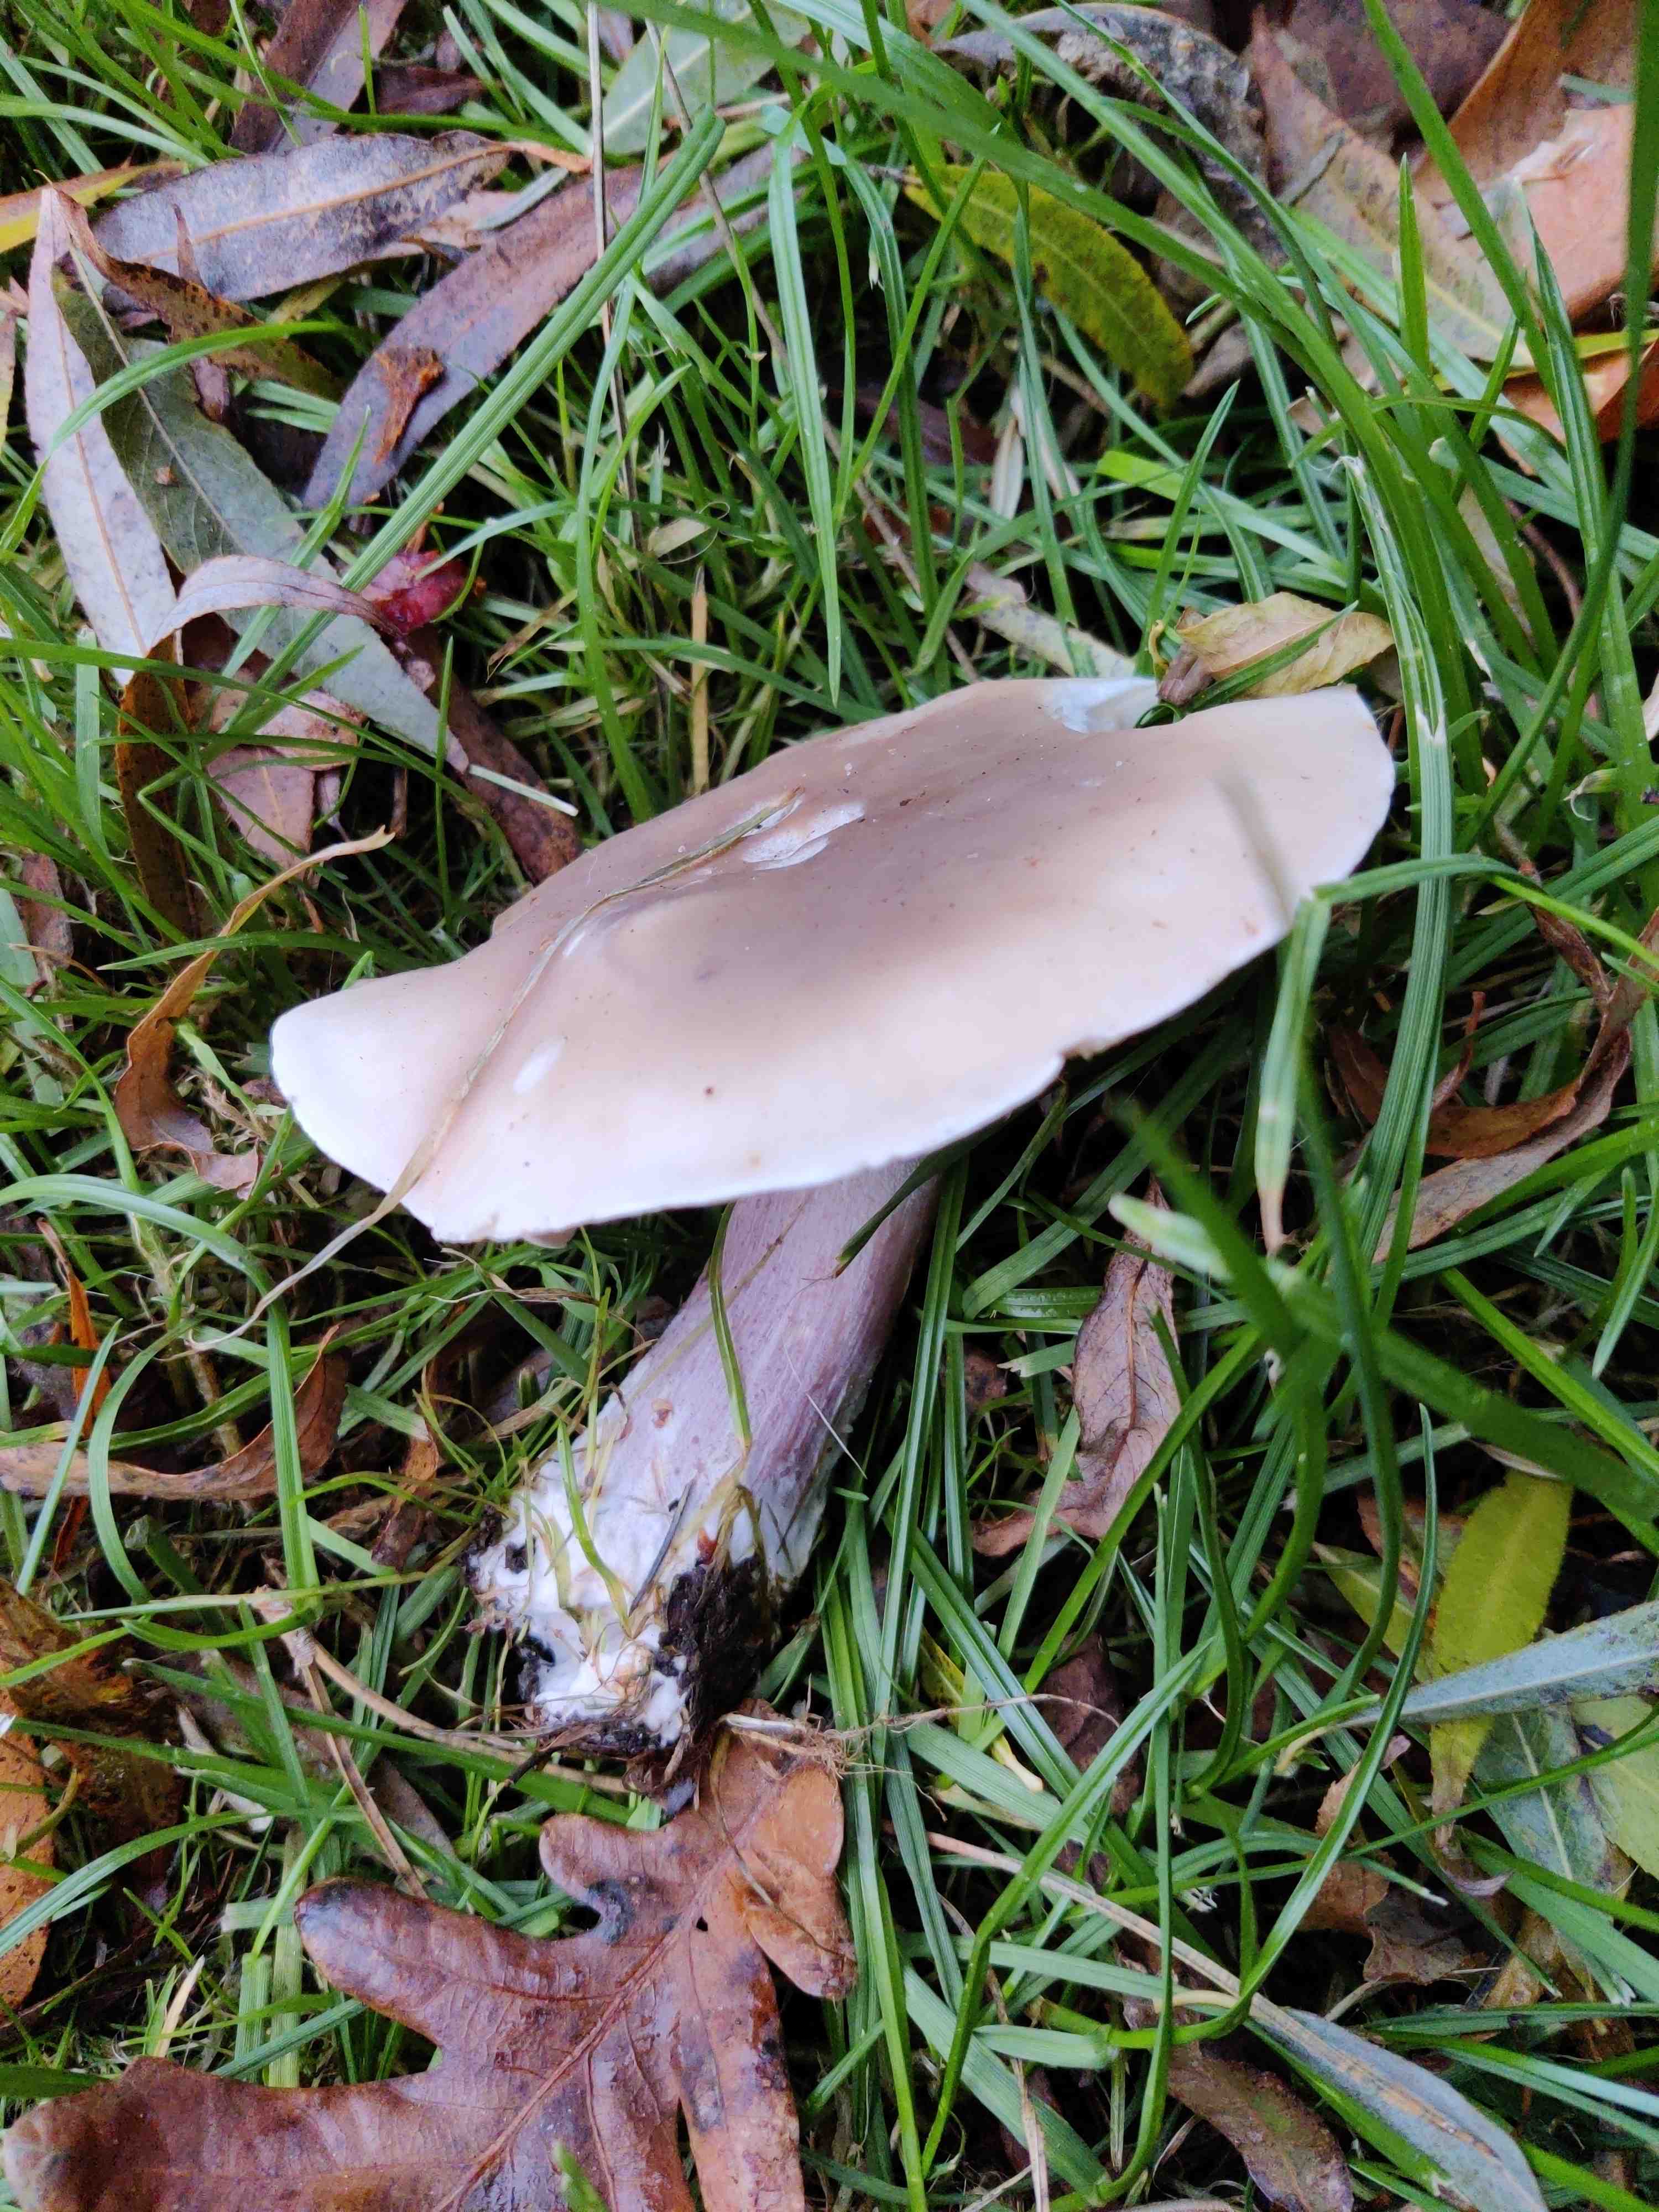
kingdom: Fungi
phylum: Basidiomycota
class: Agaricomycetes
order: Agaricales
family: Tricholomataceae
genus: Lepista
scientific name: Lepista personata
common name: bleg hekseringshat
